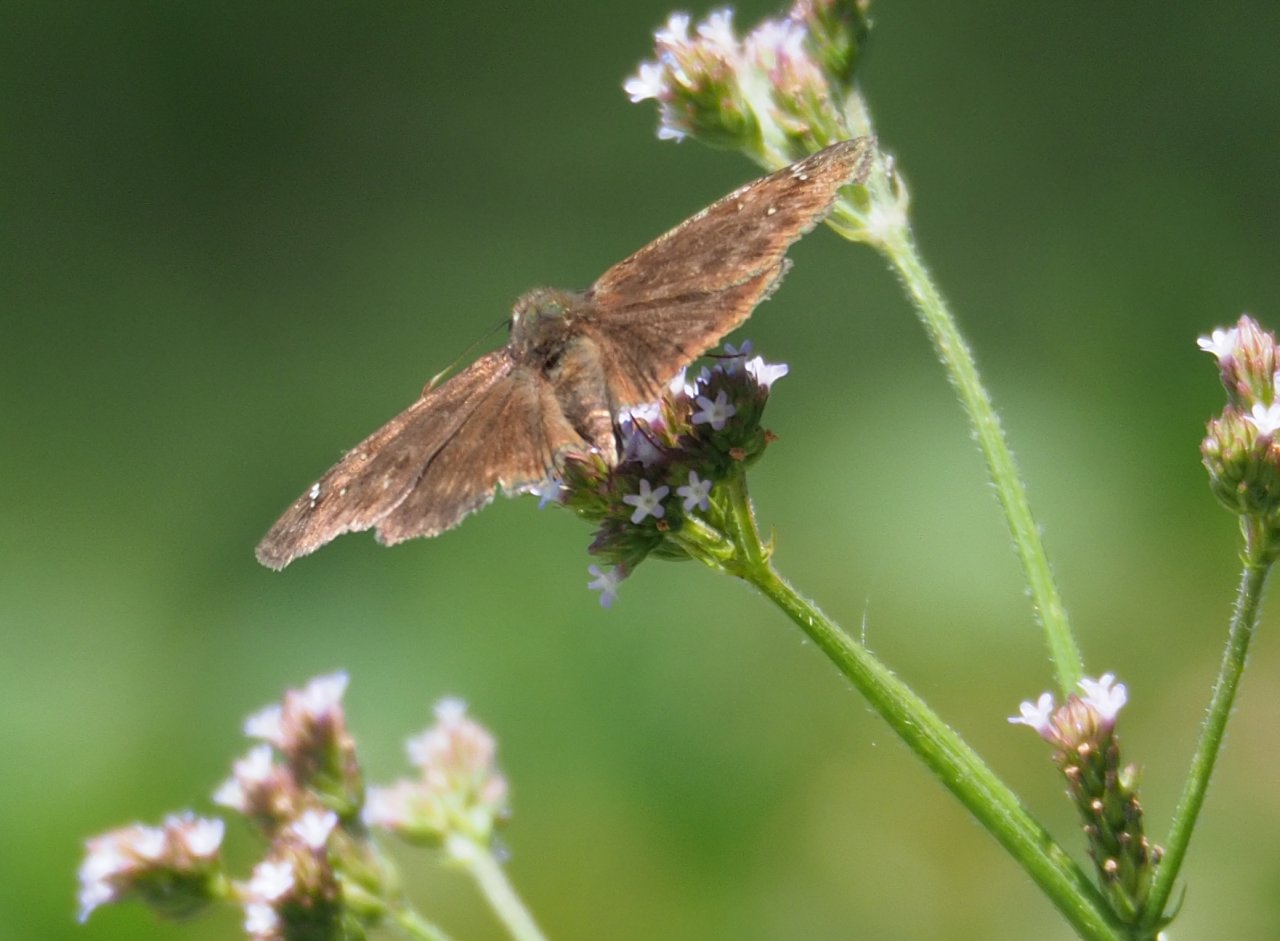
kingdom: Animalia
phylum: Arthropoda
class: Insecta
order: Lepidoptera
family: Hesperiidae
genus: Gesta
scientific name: Gesta
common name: Horace's Duskywing
